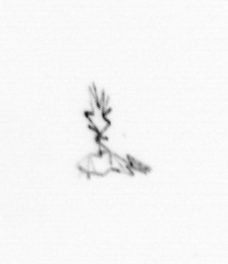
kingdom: Chromista
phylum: Ochrophyta
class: Bacillariophyceae
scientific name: Bacillariophyceae
